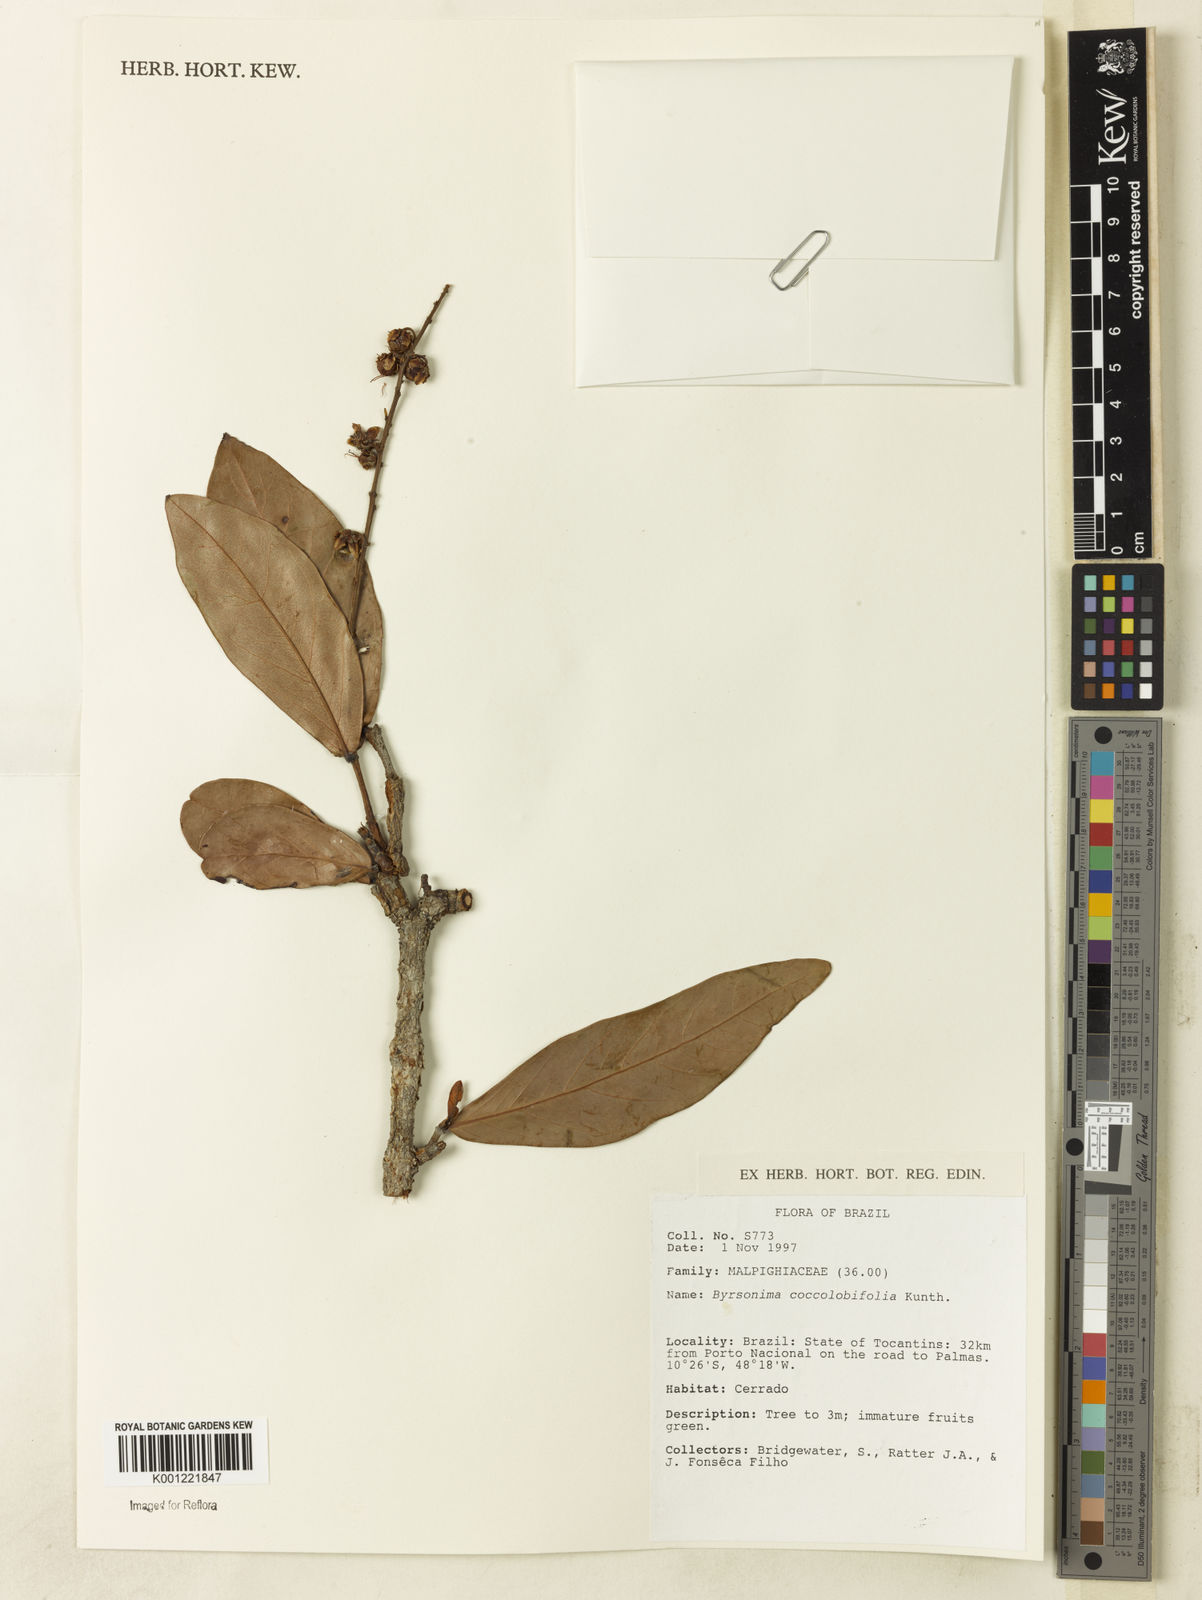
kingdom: Plantae
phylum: Tracheophyta
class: Magnoliopsida
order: Malpighiales
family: Malpighiaceae
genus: Byrsonima
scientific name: Byrsonima coccolobifolia
